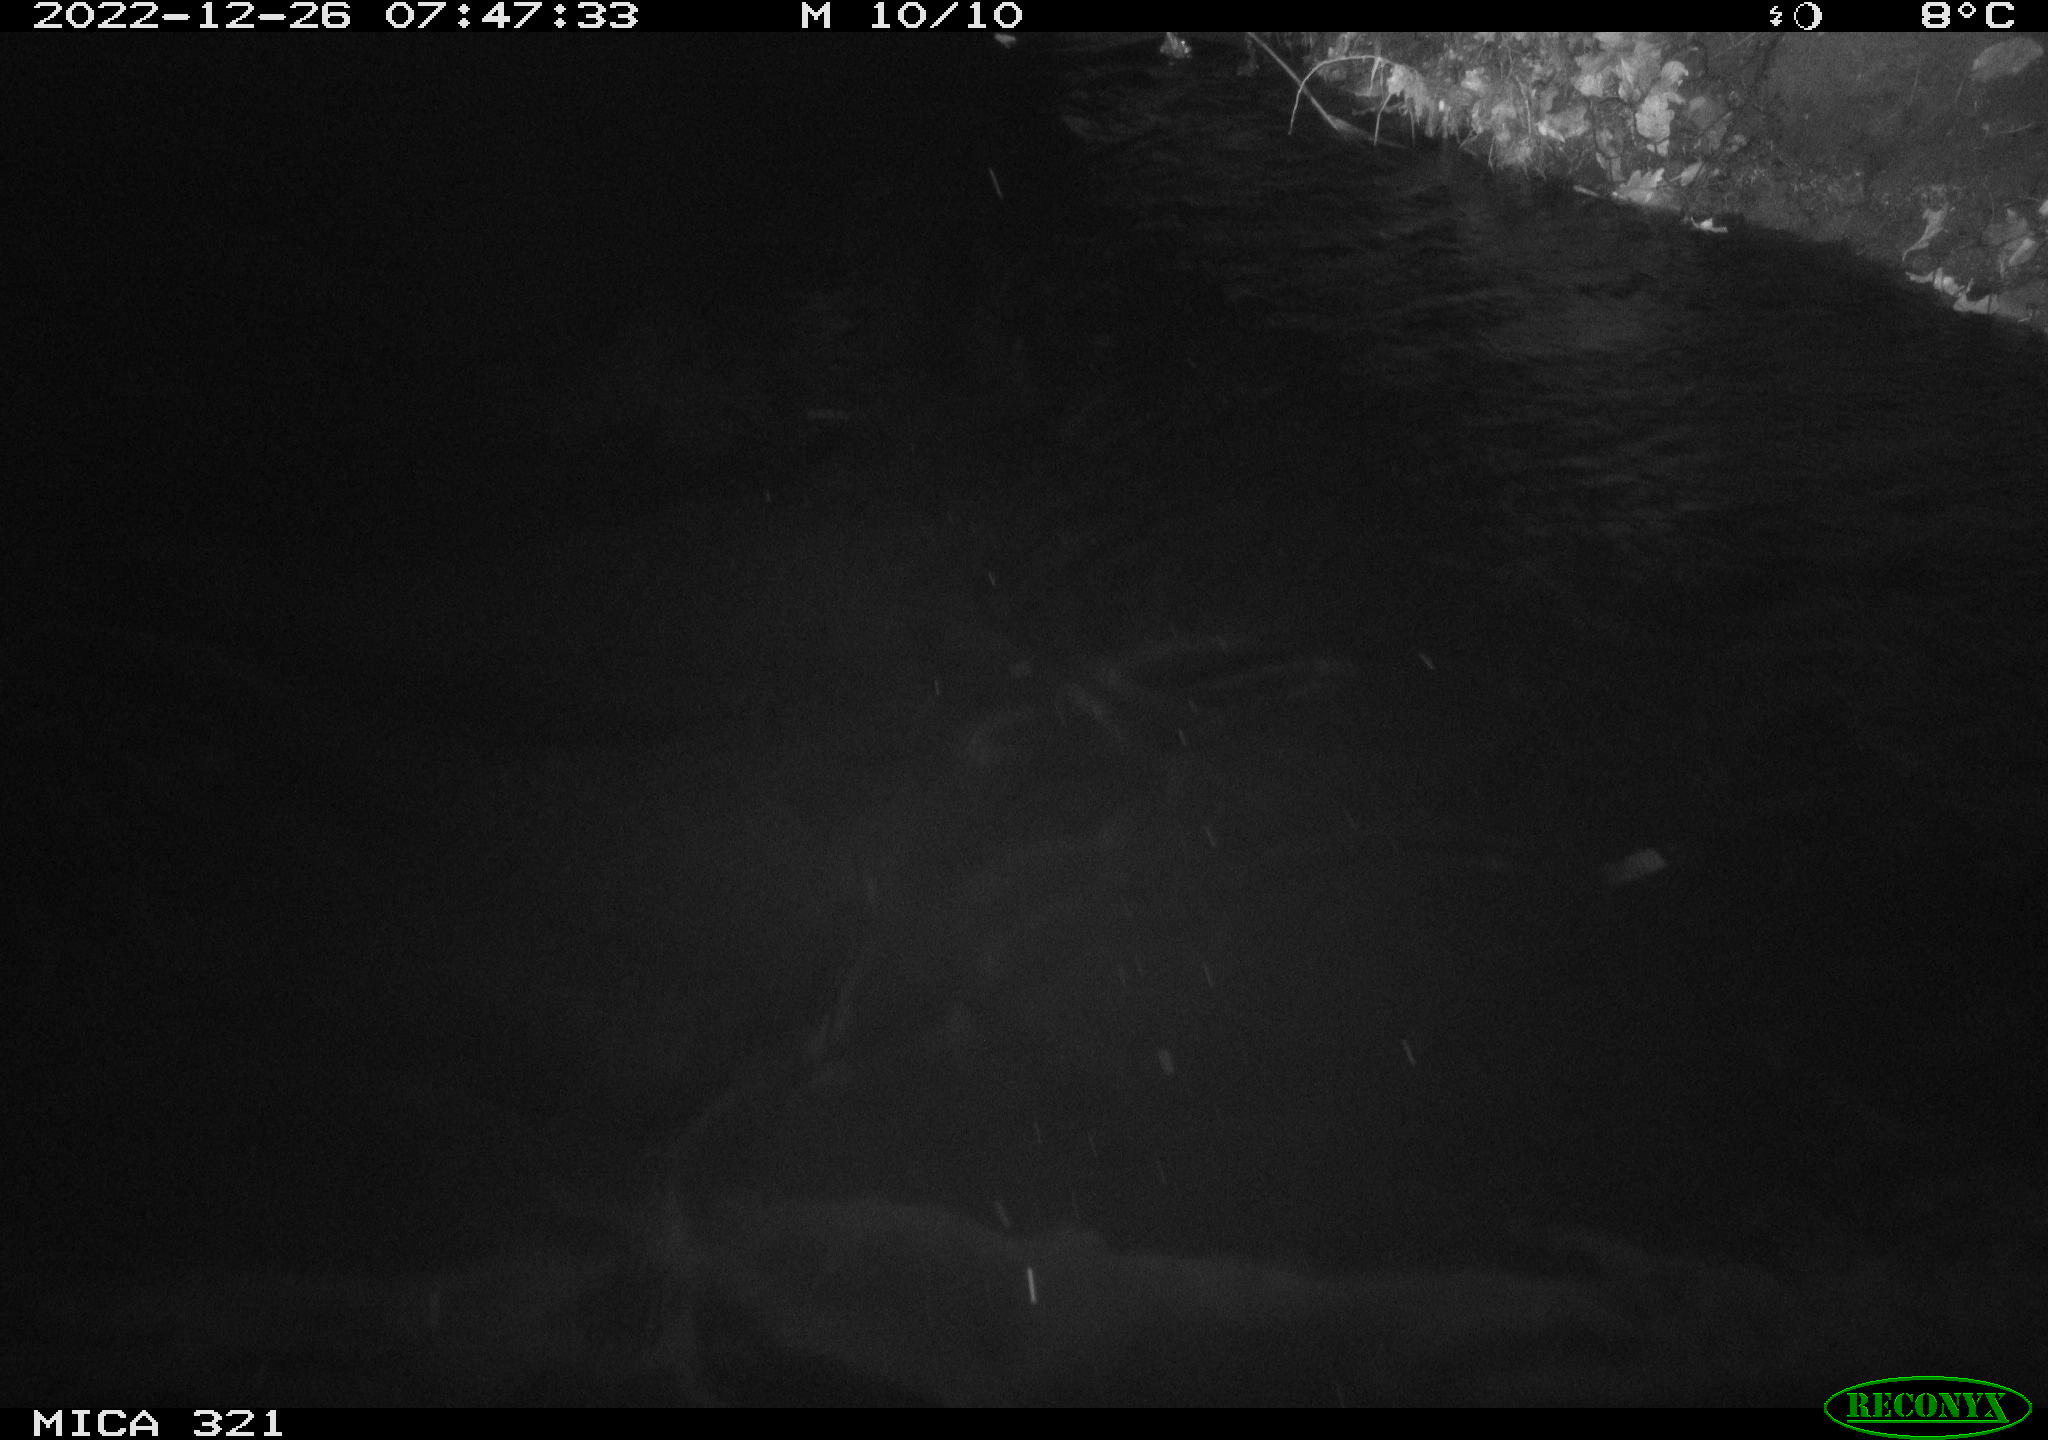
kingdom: Animalia
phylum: Chordata
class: Mammalia
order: Rodentia
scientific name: Rodentia
